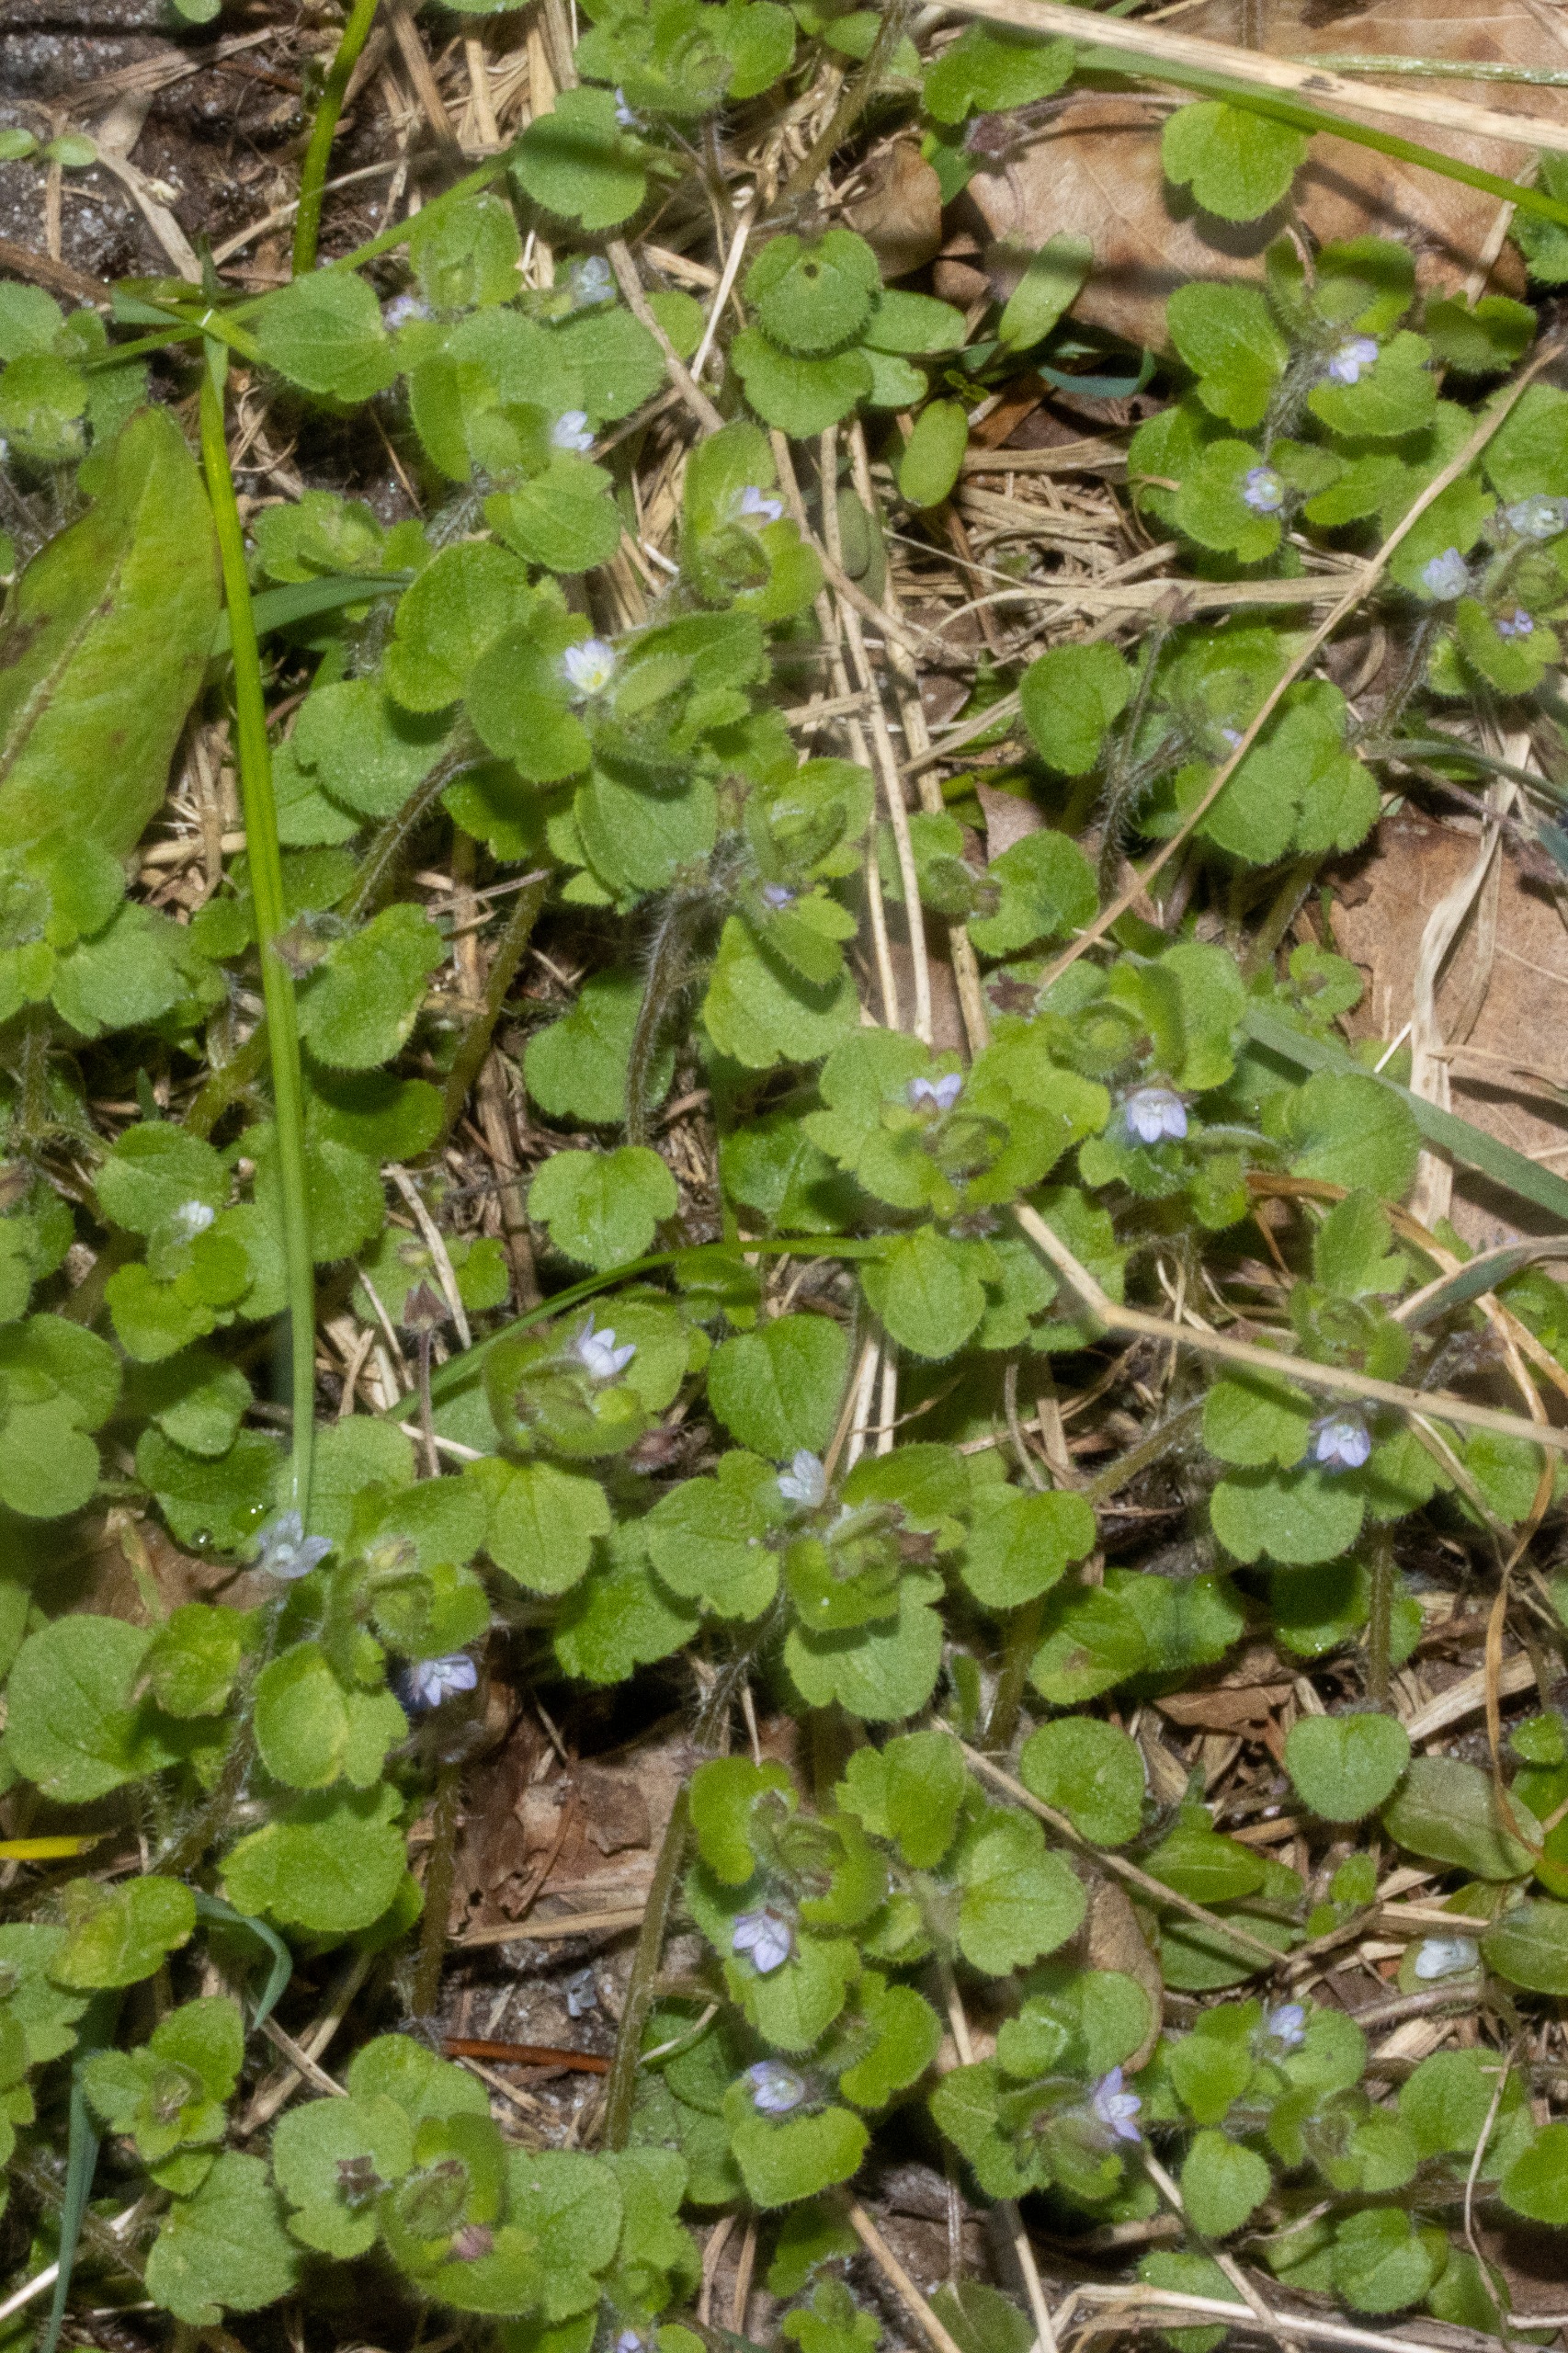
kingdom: Plantae
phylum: Tracheophyta
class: Magnoliopsida
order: Lamiales
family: Plantaginaceae
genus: Veronica
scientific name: Veronica sublobata
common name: Krat-ærenpris
